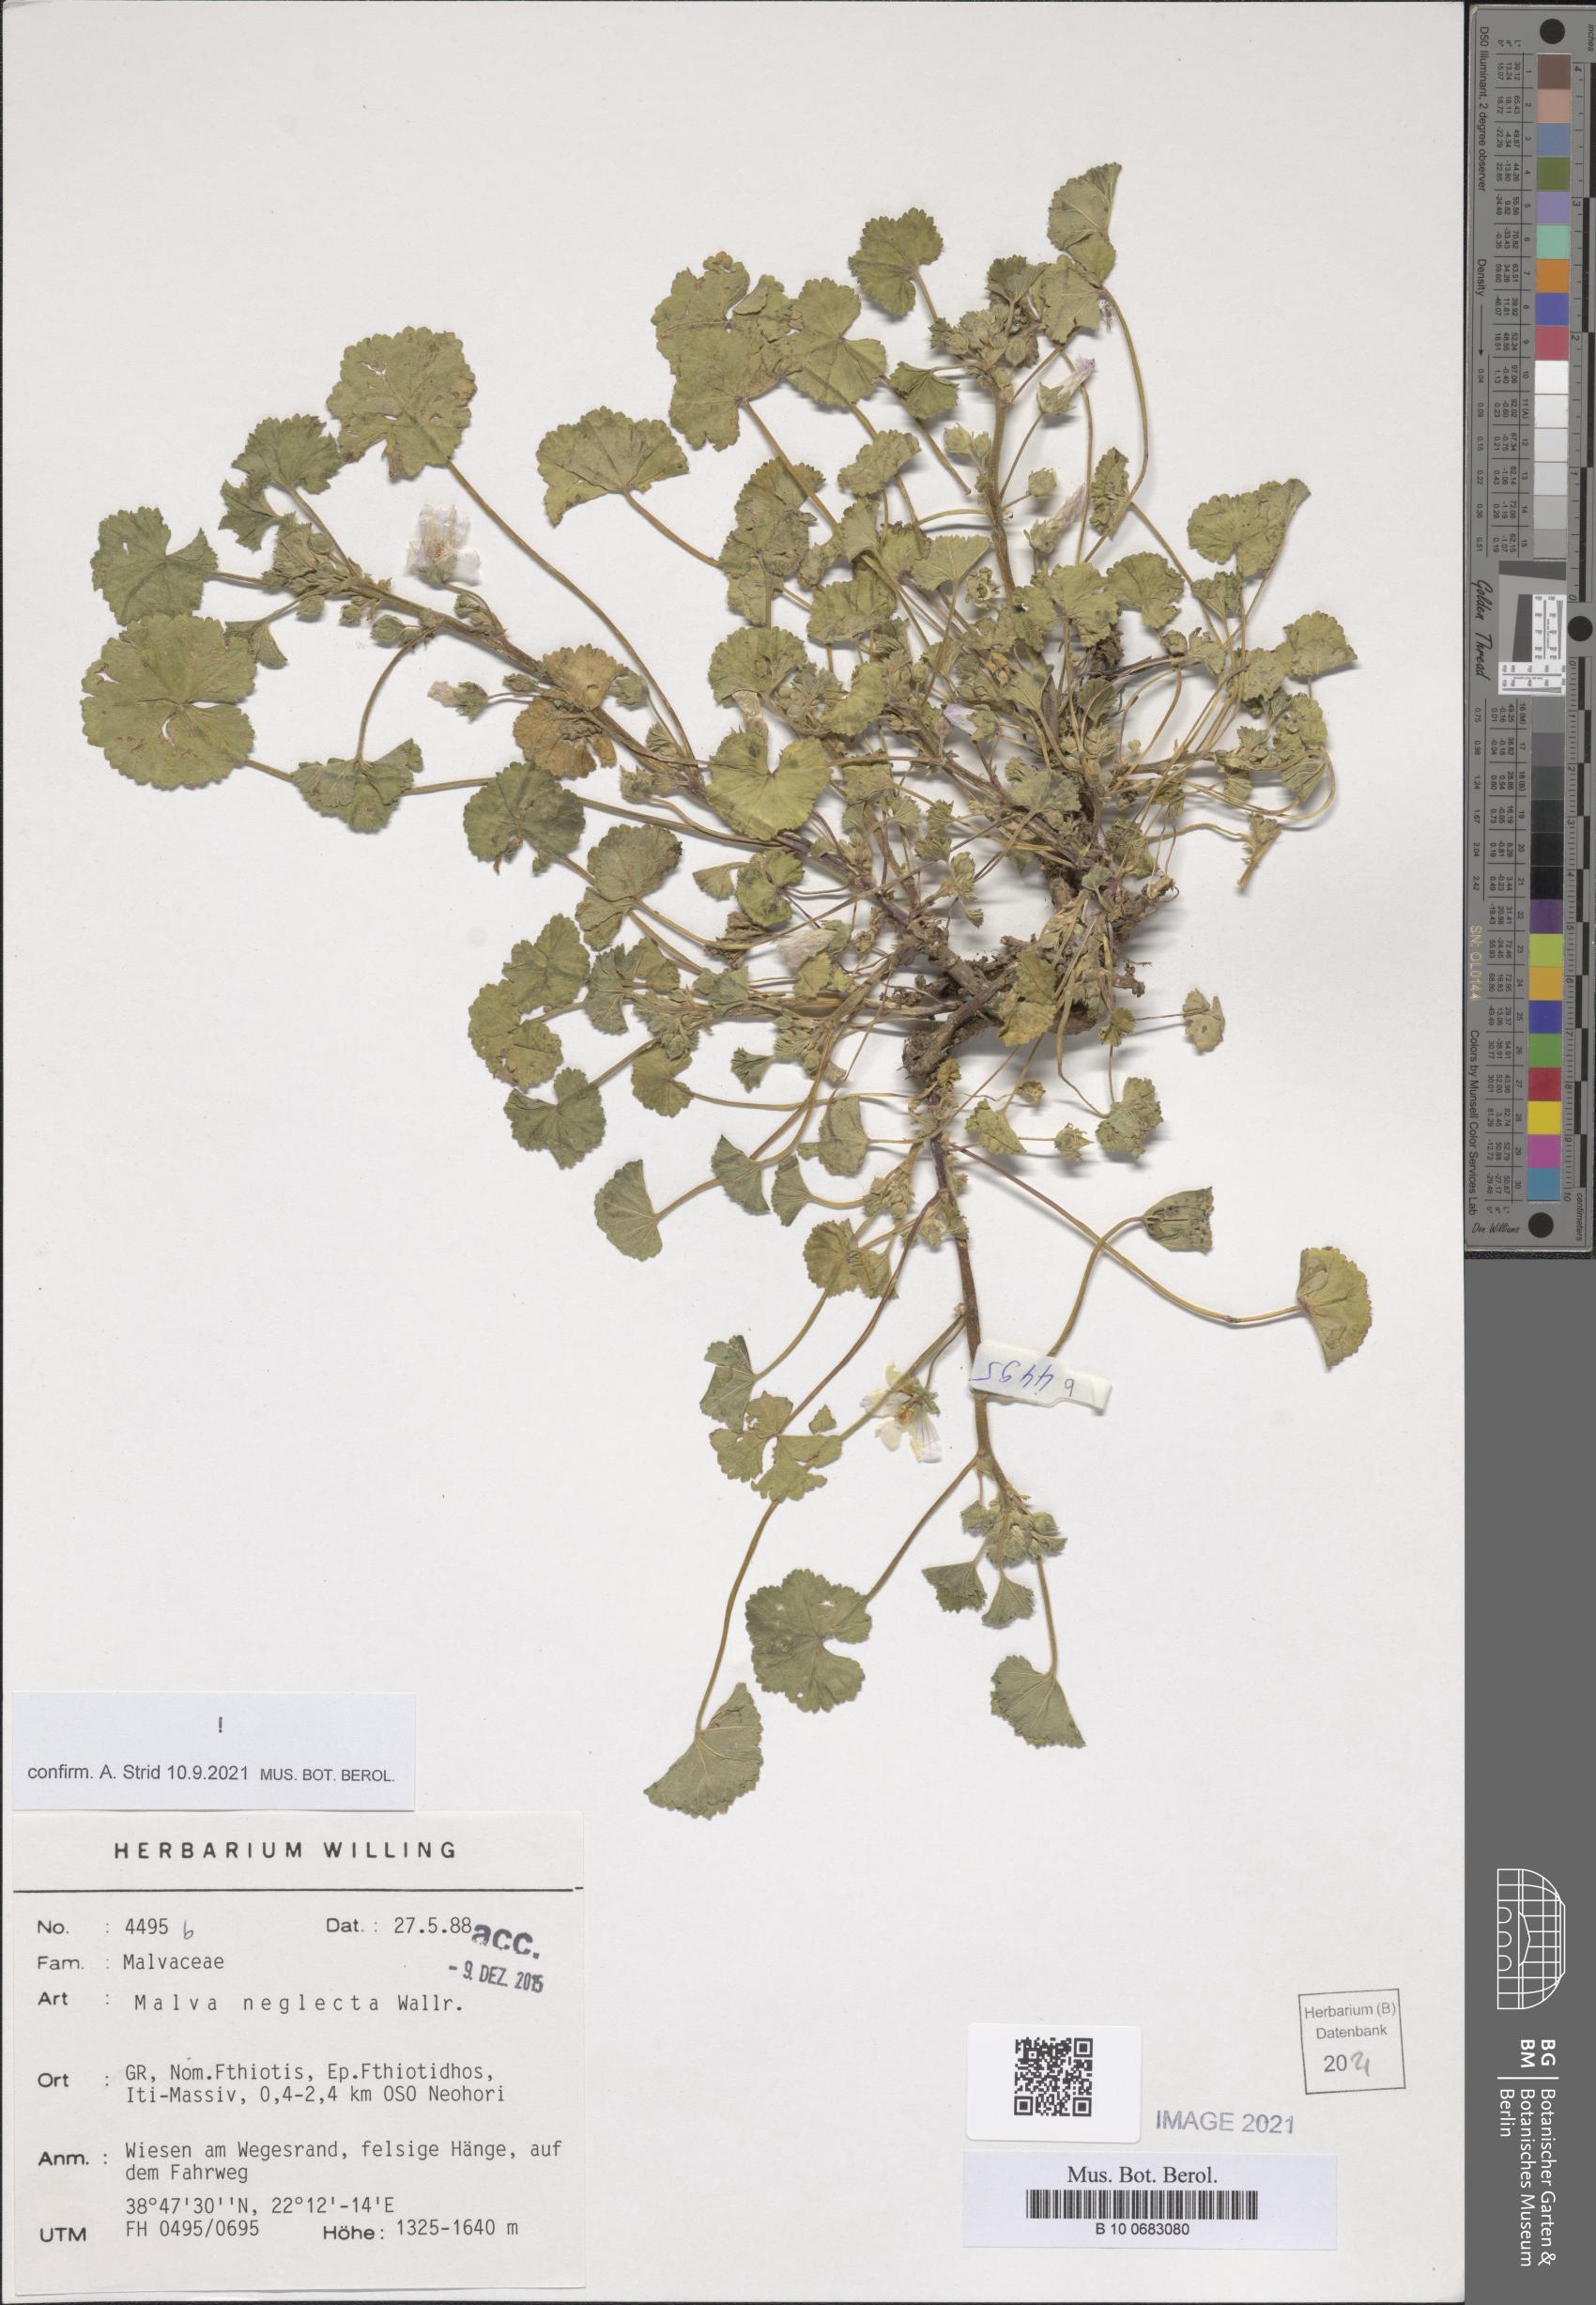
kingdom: Plantae
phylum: Tracheophyta
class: Magnoliopsida
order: Malvales
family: Malvaceae
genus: Malva
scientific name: Malva neglecta
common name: Common mallow
